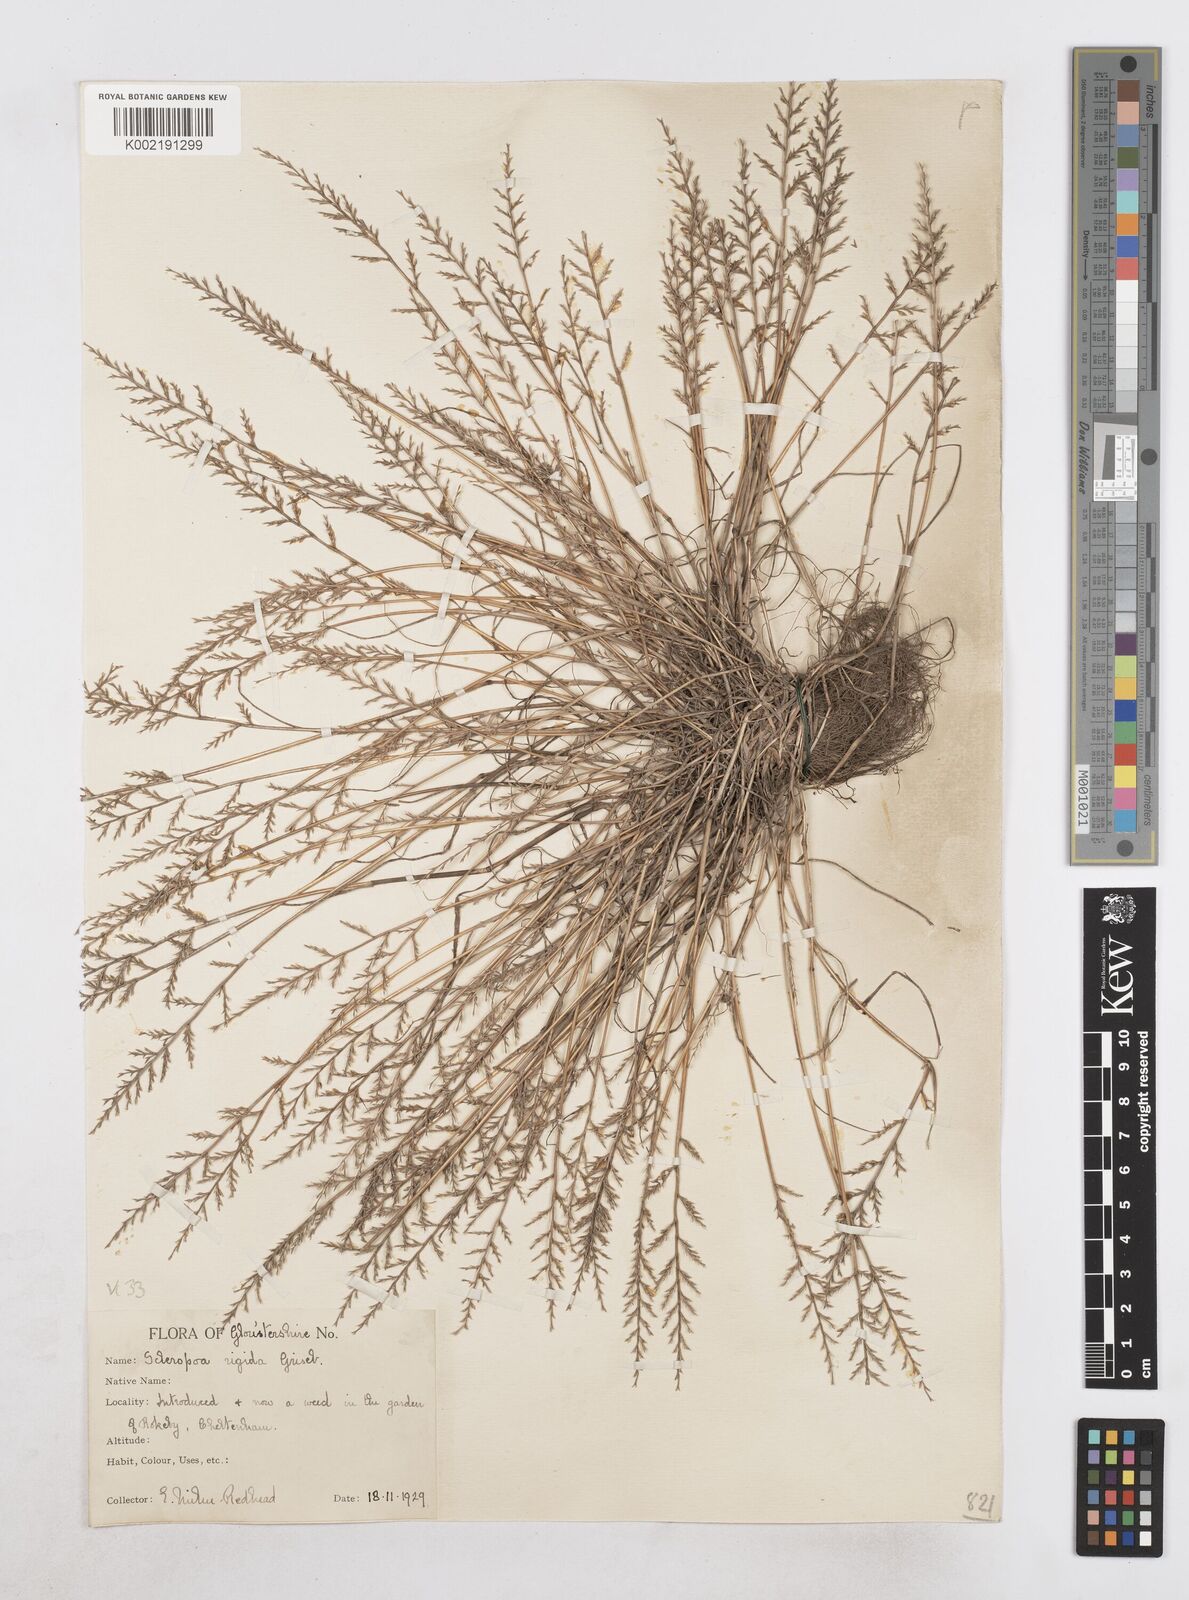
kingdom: Plantae
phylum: Tracheophyta
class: Liliopsida
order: Poales
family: Poaceae
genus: Catapodium
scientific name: Catapodium rigidum
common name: Fern-grass
